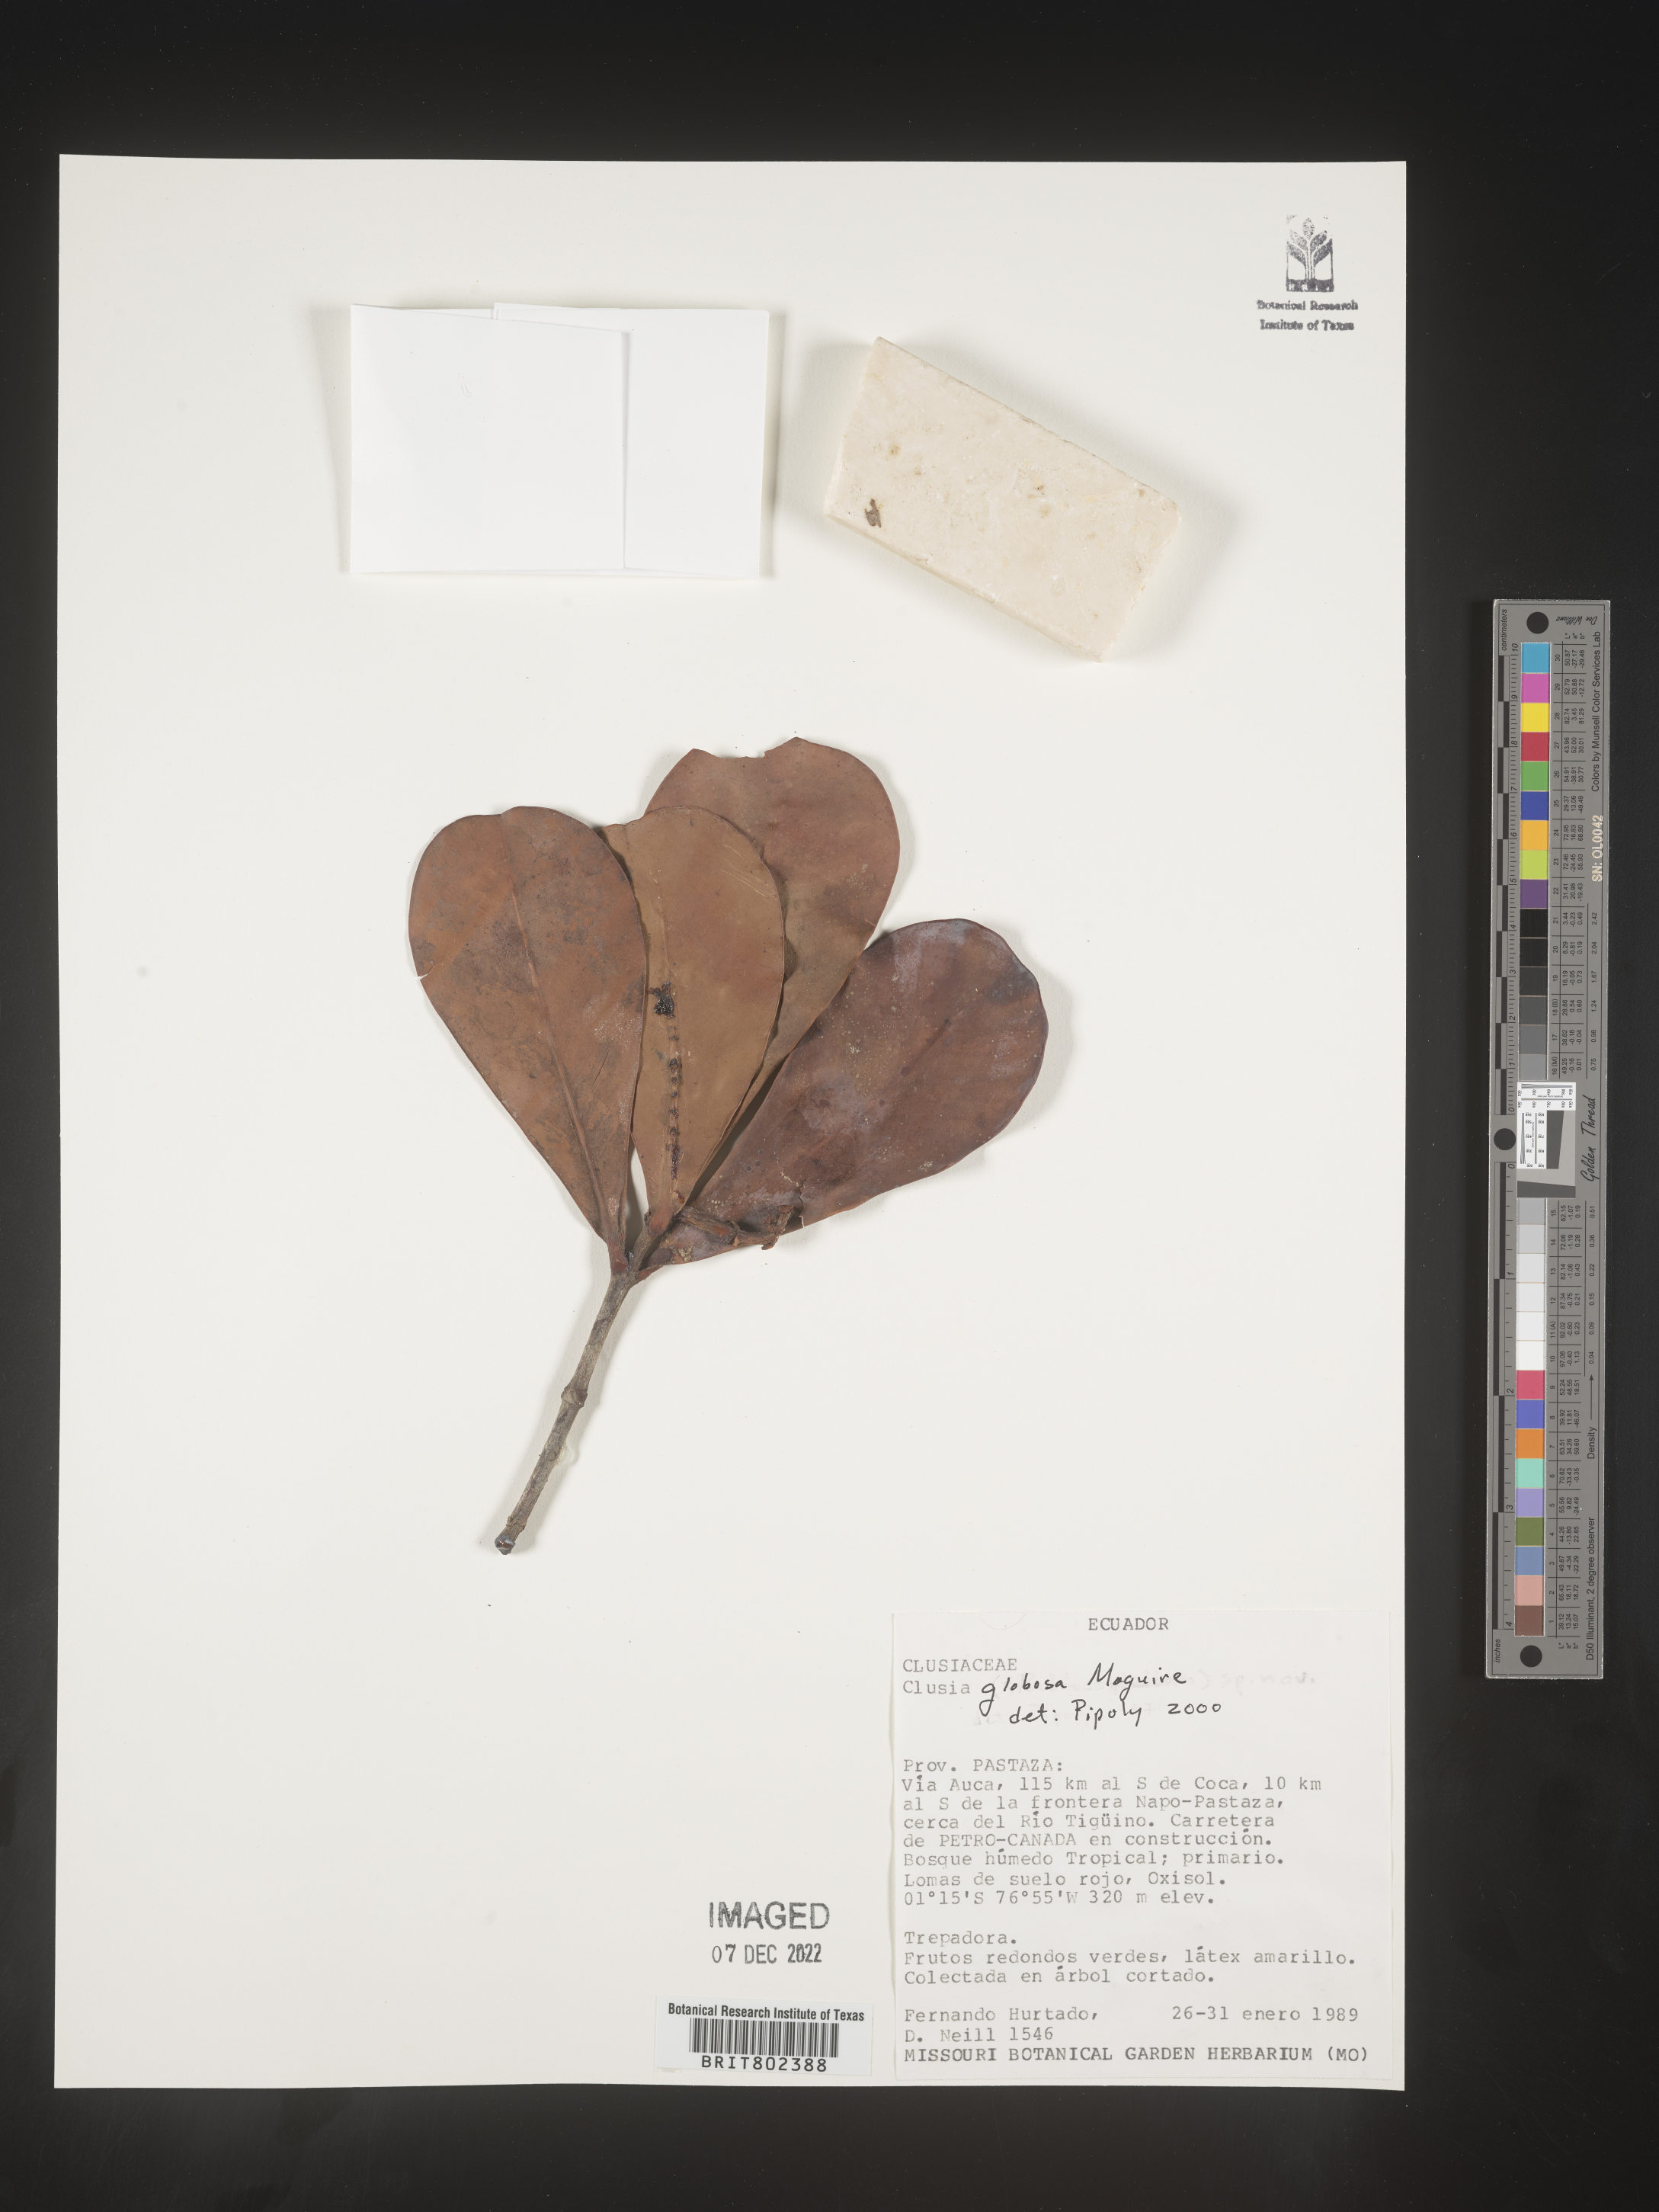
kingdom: Plantae
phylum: Tracheophyta
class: Magnoliopsida
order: Malpighiales
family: Clusiaceae
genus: Clusia
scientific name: Clusia
